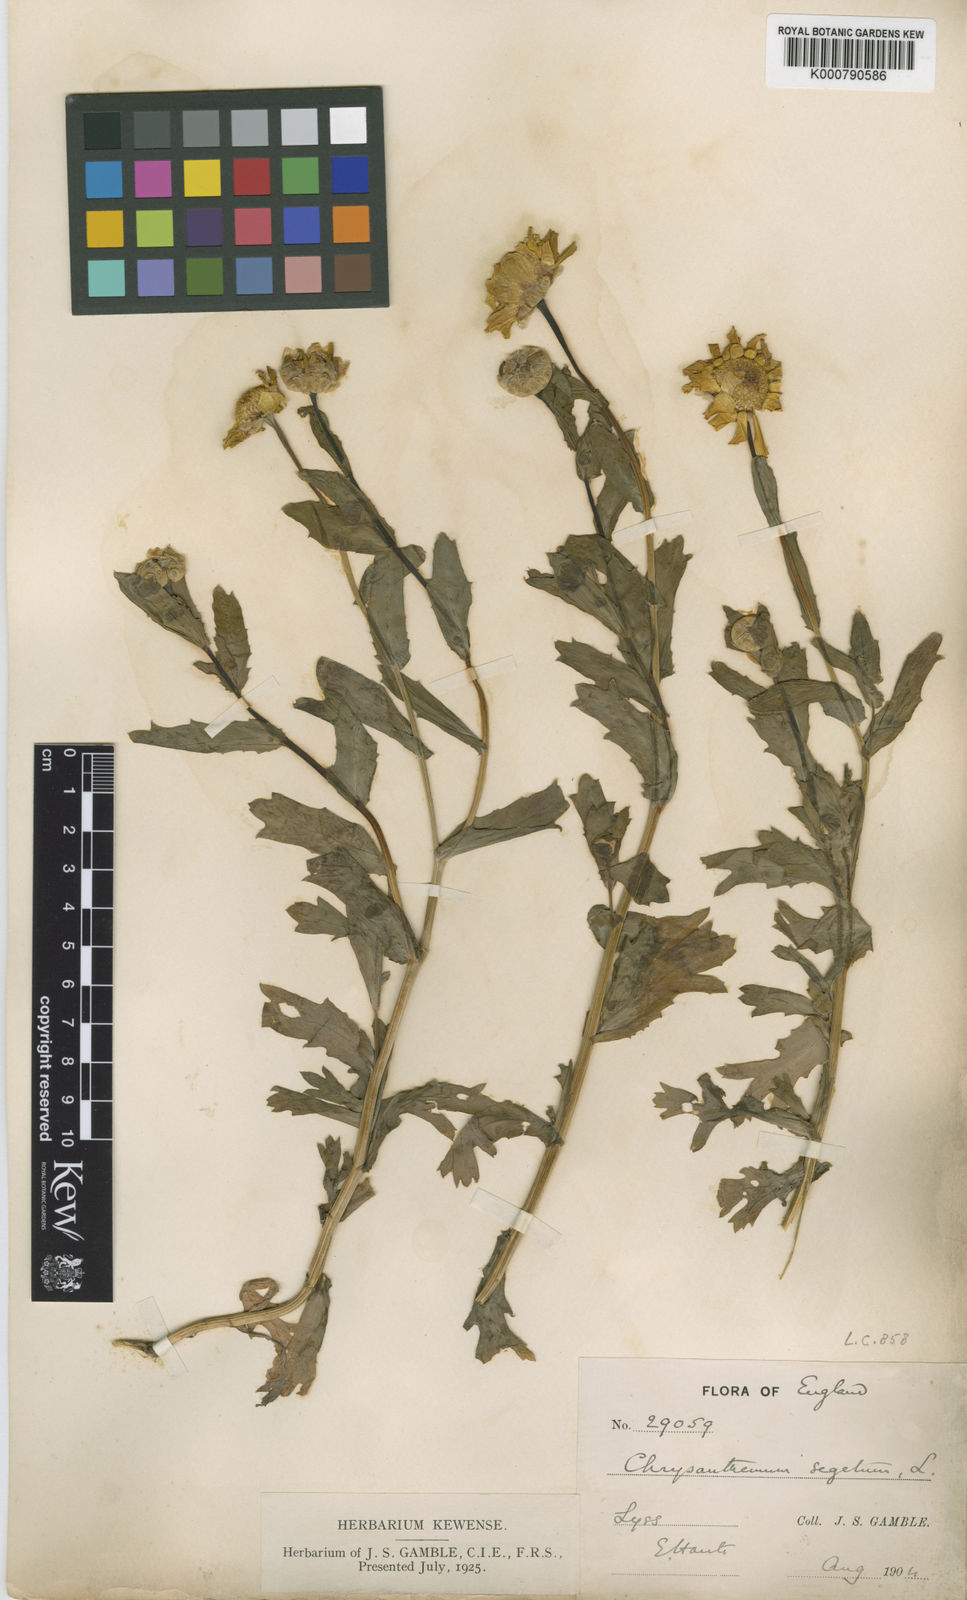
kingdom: Plantae
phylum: Tracheophyta
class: Magnoliopsida
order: Asterales
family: Asteraceae
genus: Glebionis
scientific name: Glebionis
